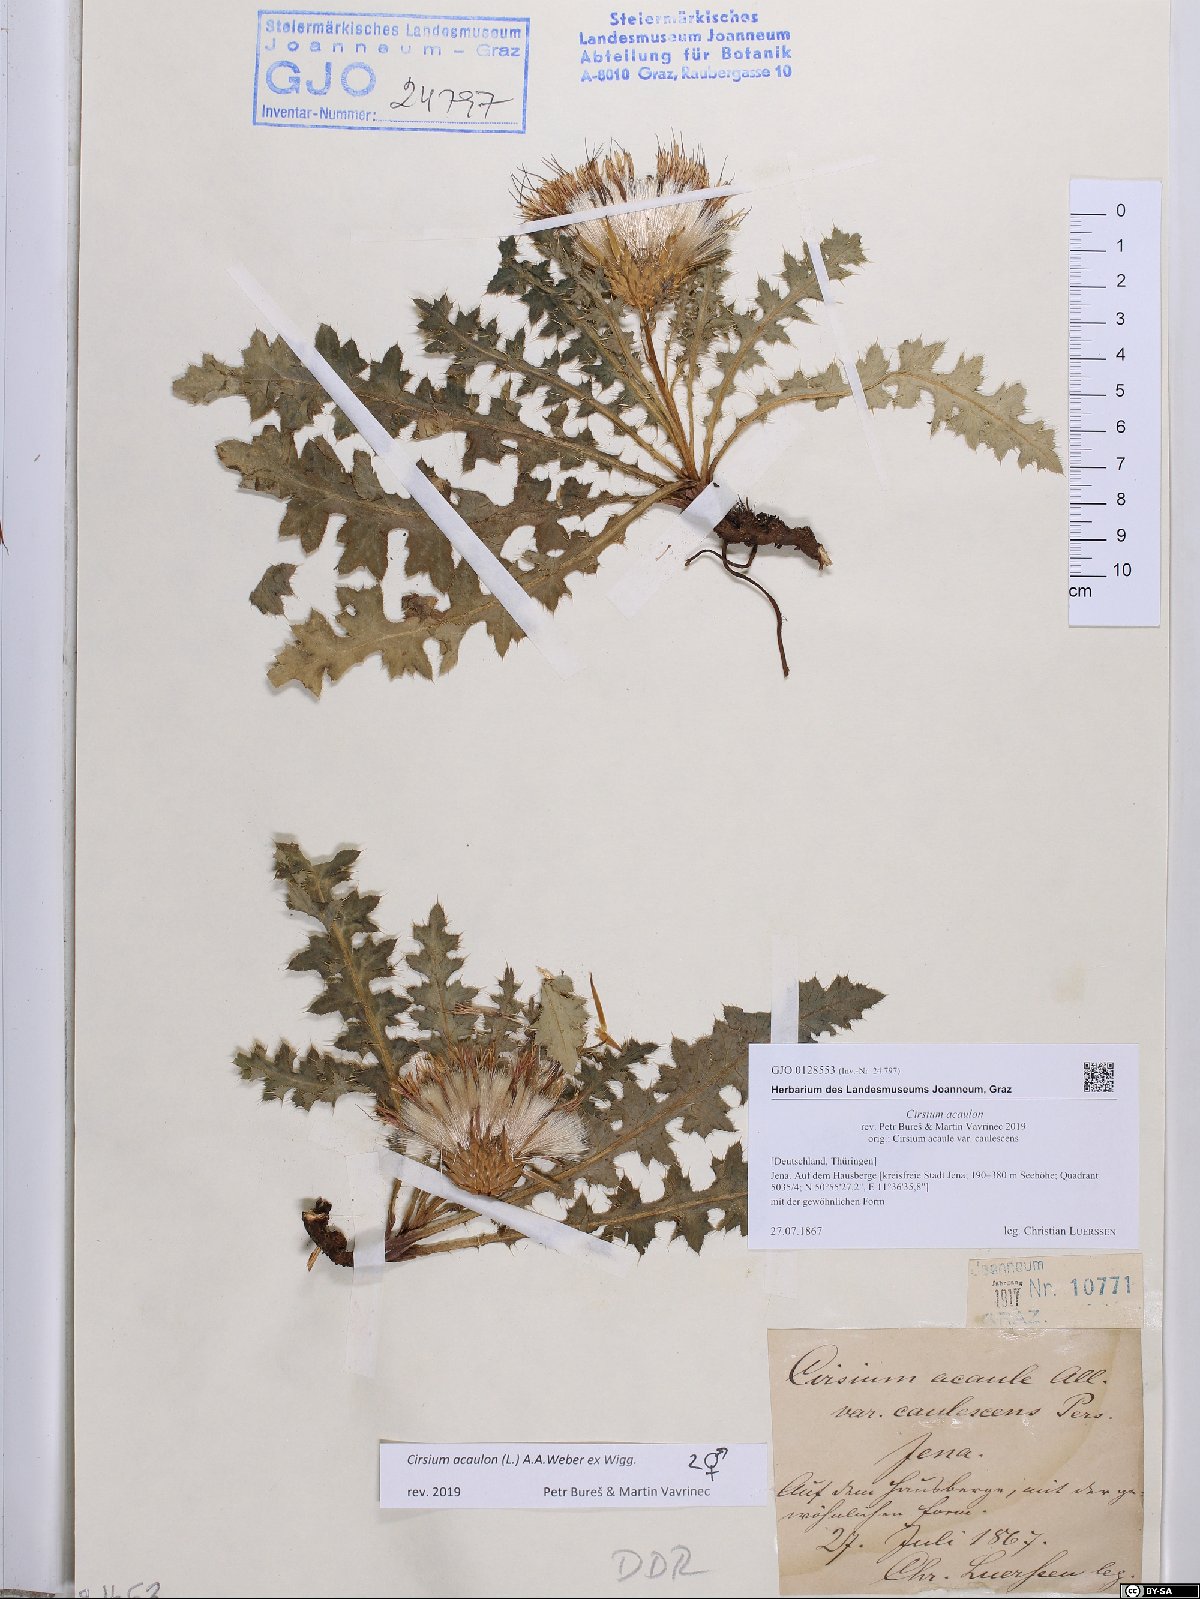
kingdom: Plantae
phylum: Tracheophyta
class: Magnoliopsida
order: Asterales
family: Asteraceae
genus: Cirsium
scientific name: Cirsium acaulon
